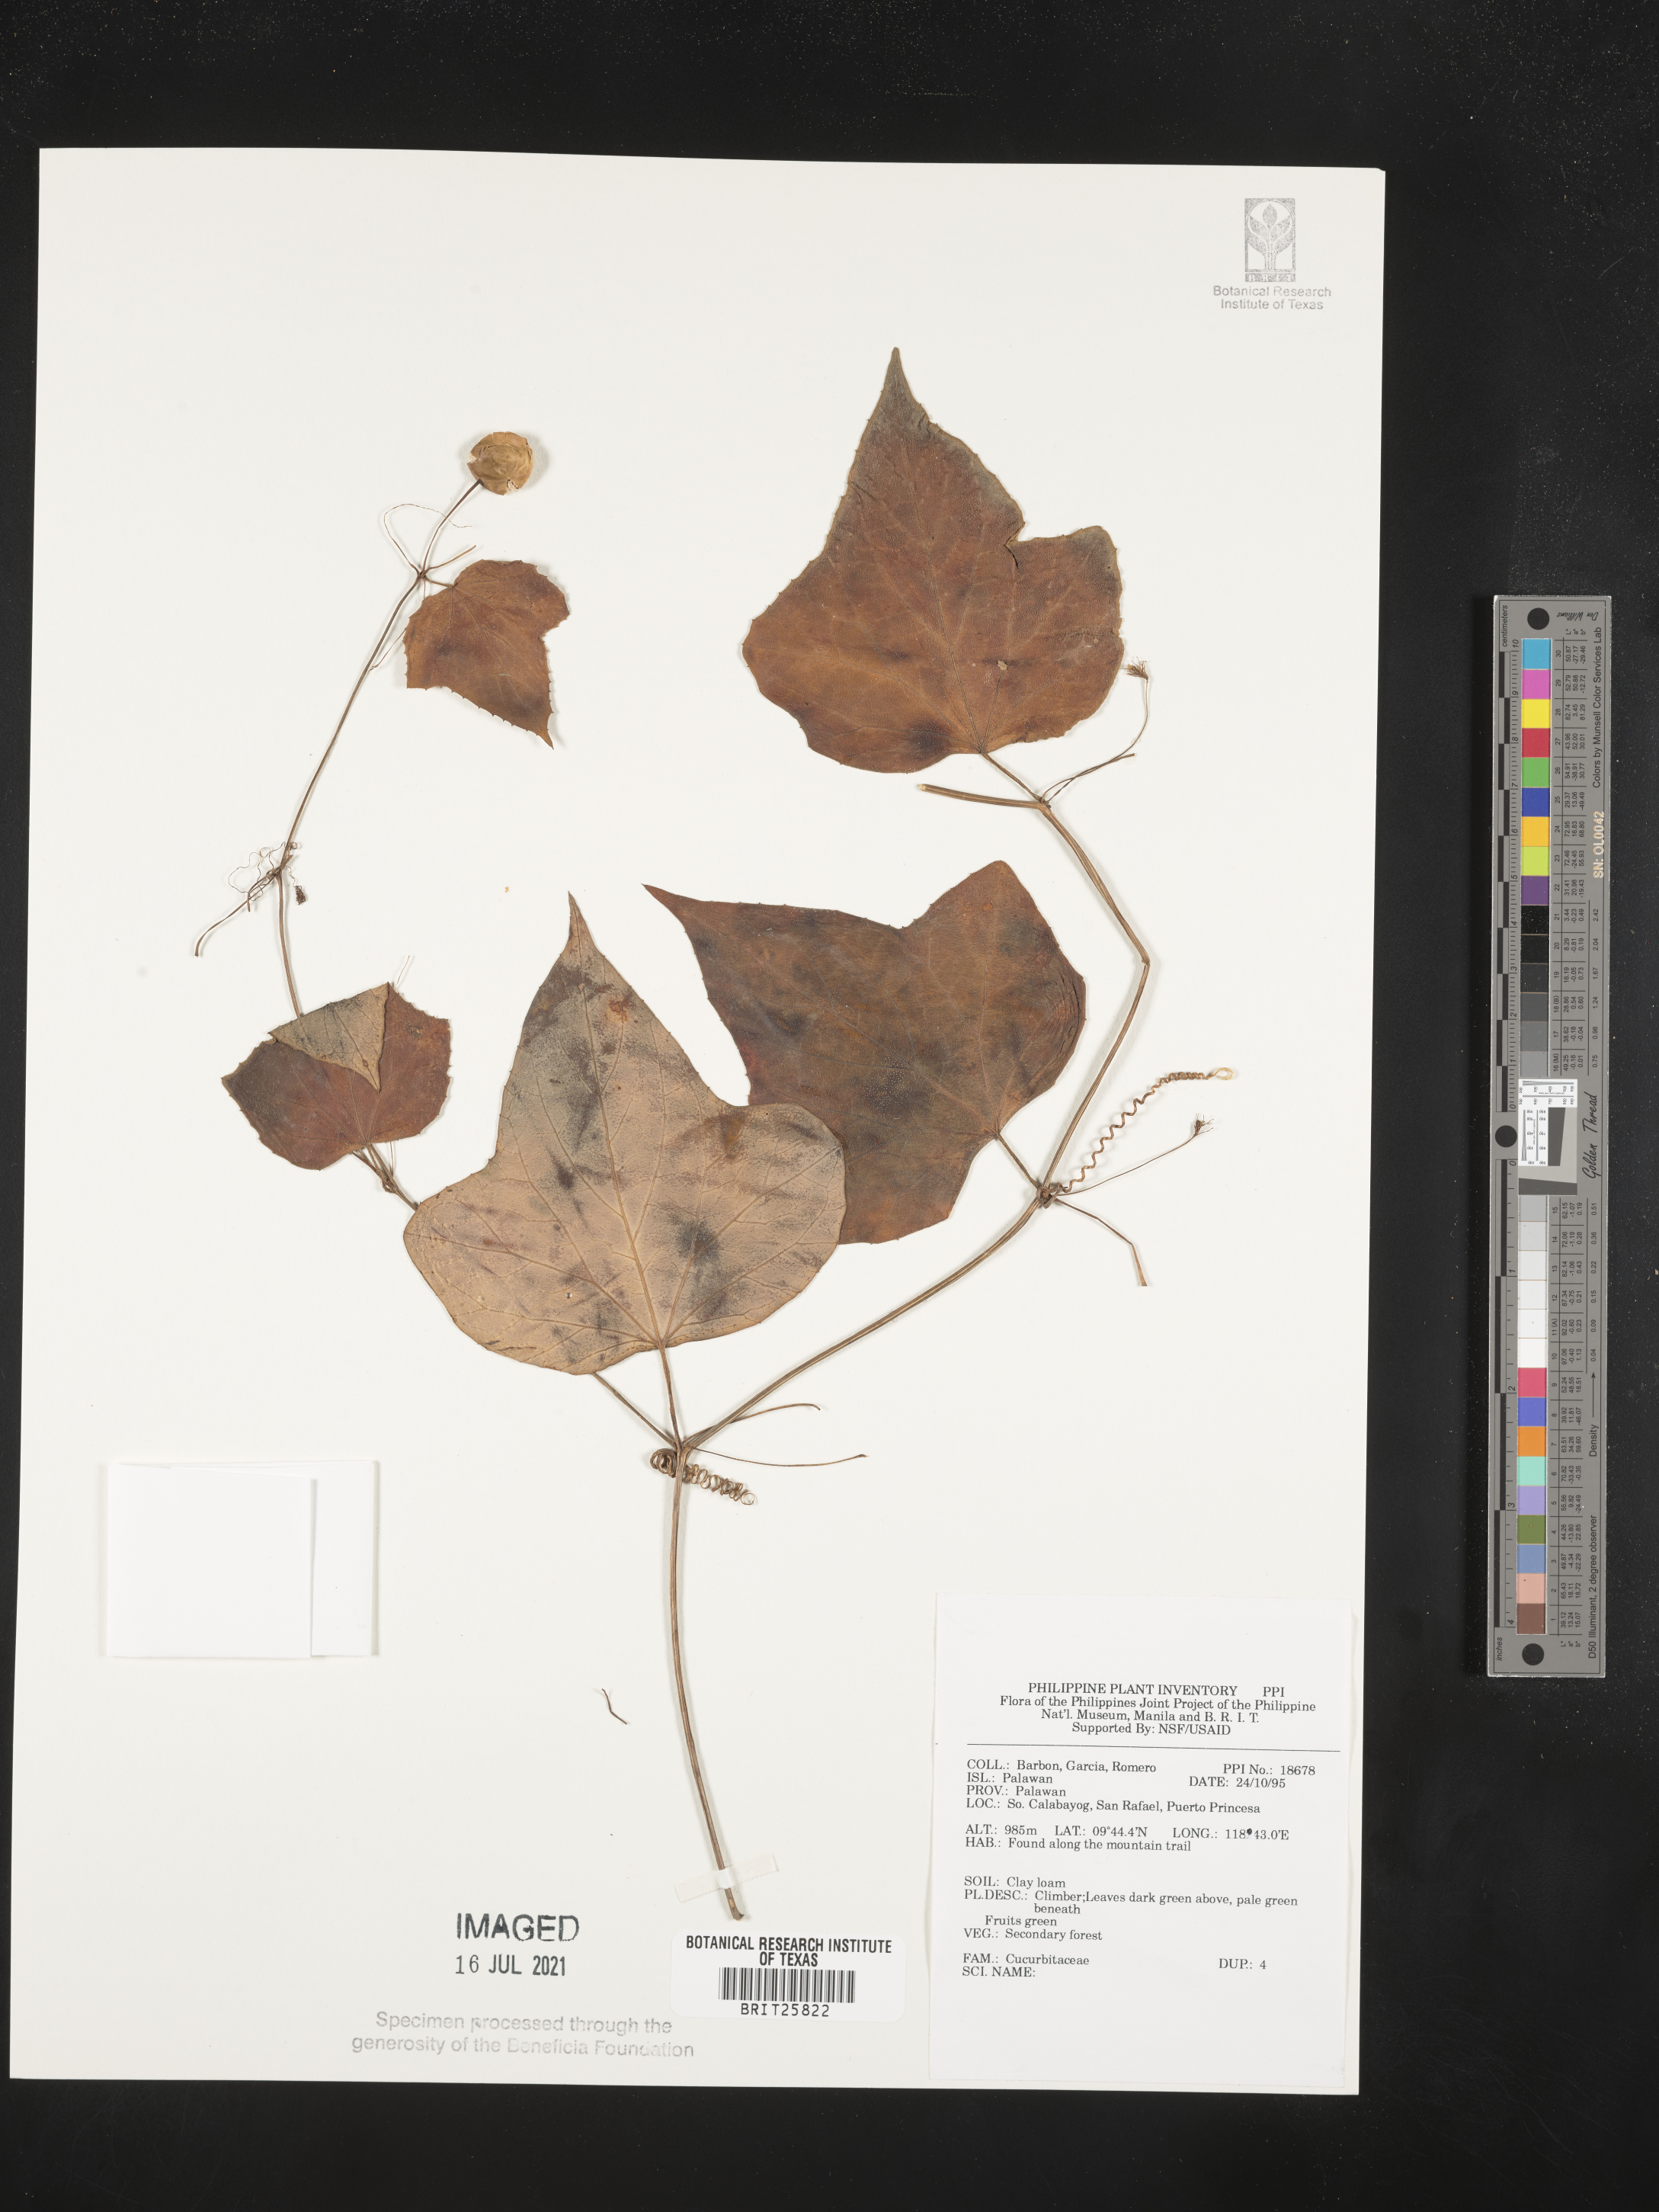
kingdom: Plantae
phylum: Tracheophyta
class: Magnoliopsida
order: Cucurbitales
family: Cucurbitaceae
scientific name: Cucurbitaceae
